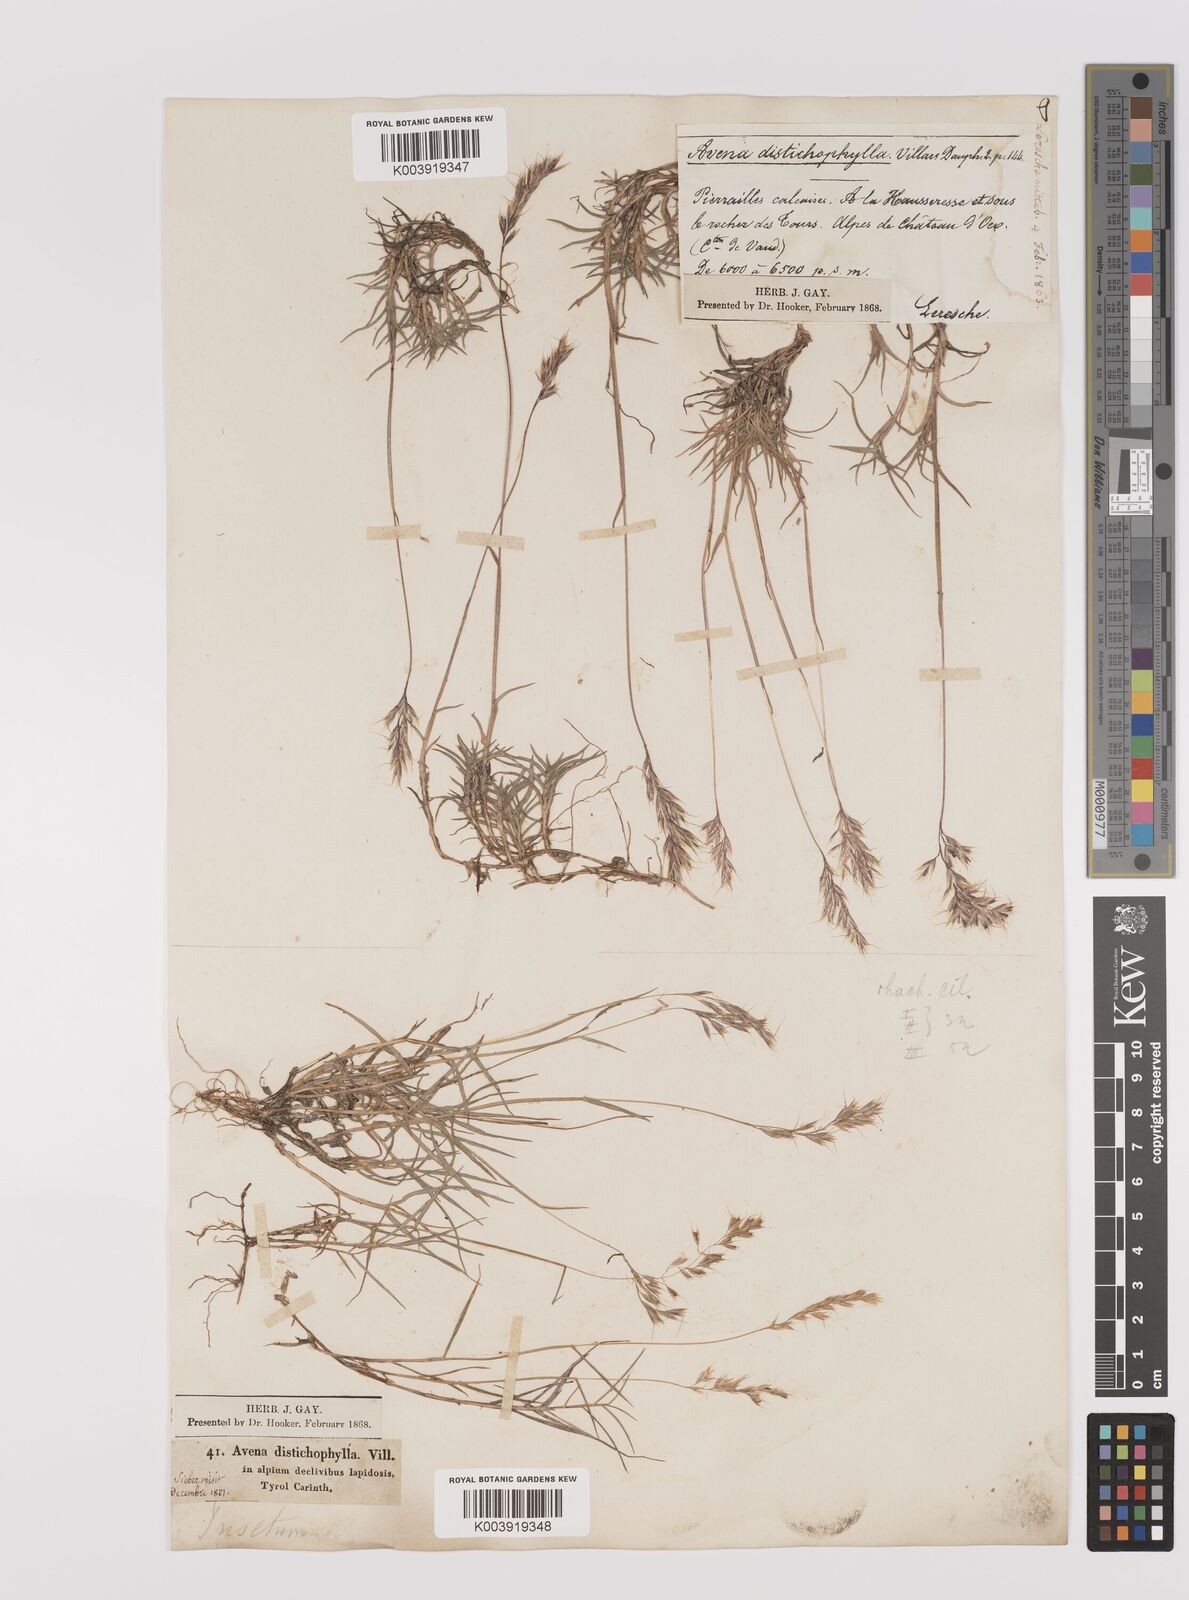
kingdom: Plantae
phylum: Tracheophyta
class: Liliopsida
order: Poales
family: Poaceae
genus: Acrospelion
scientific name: Acrospelion distichophyllum
